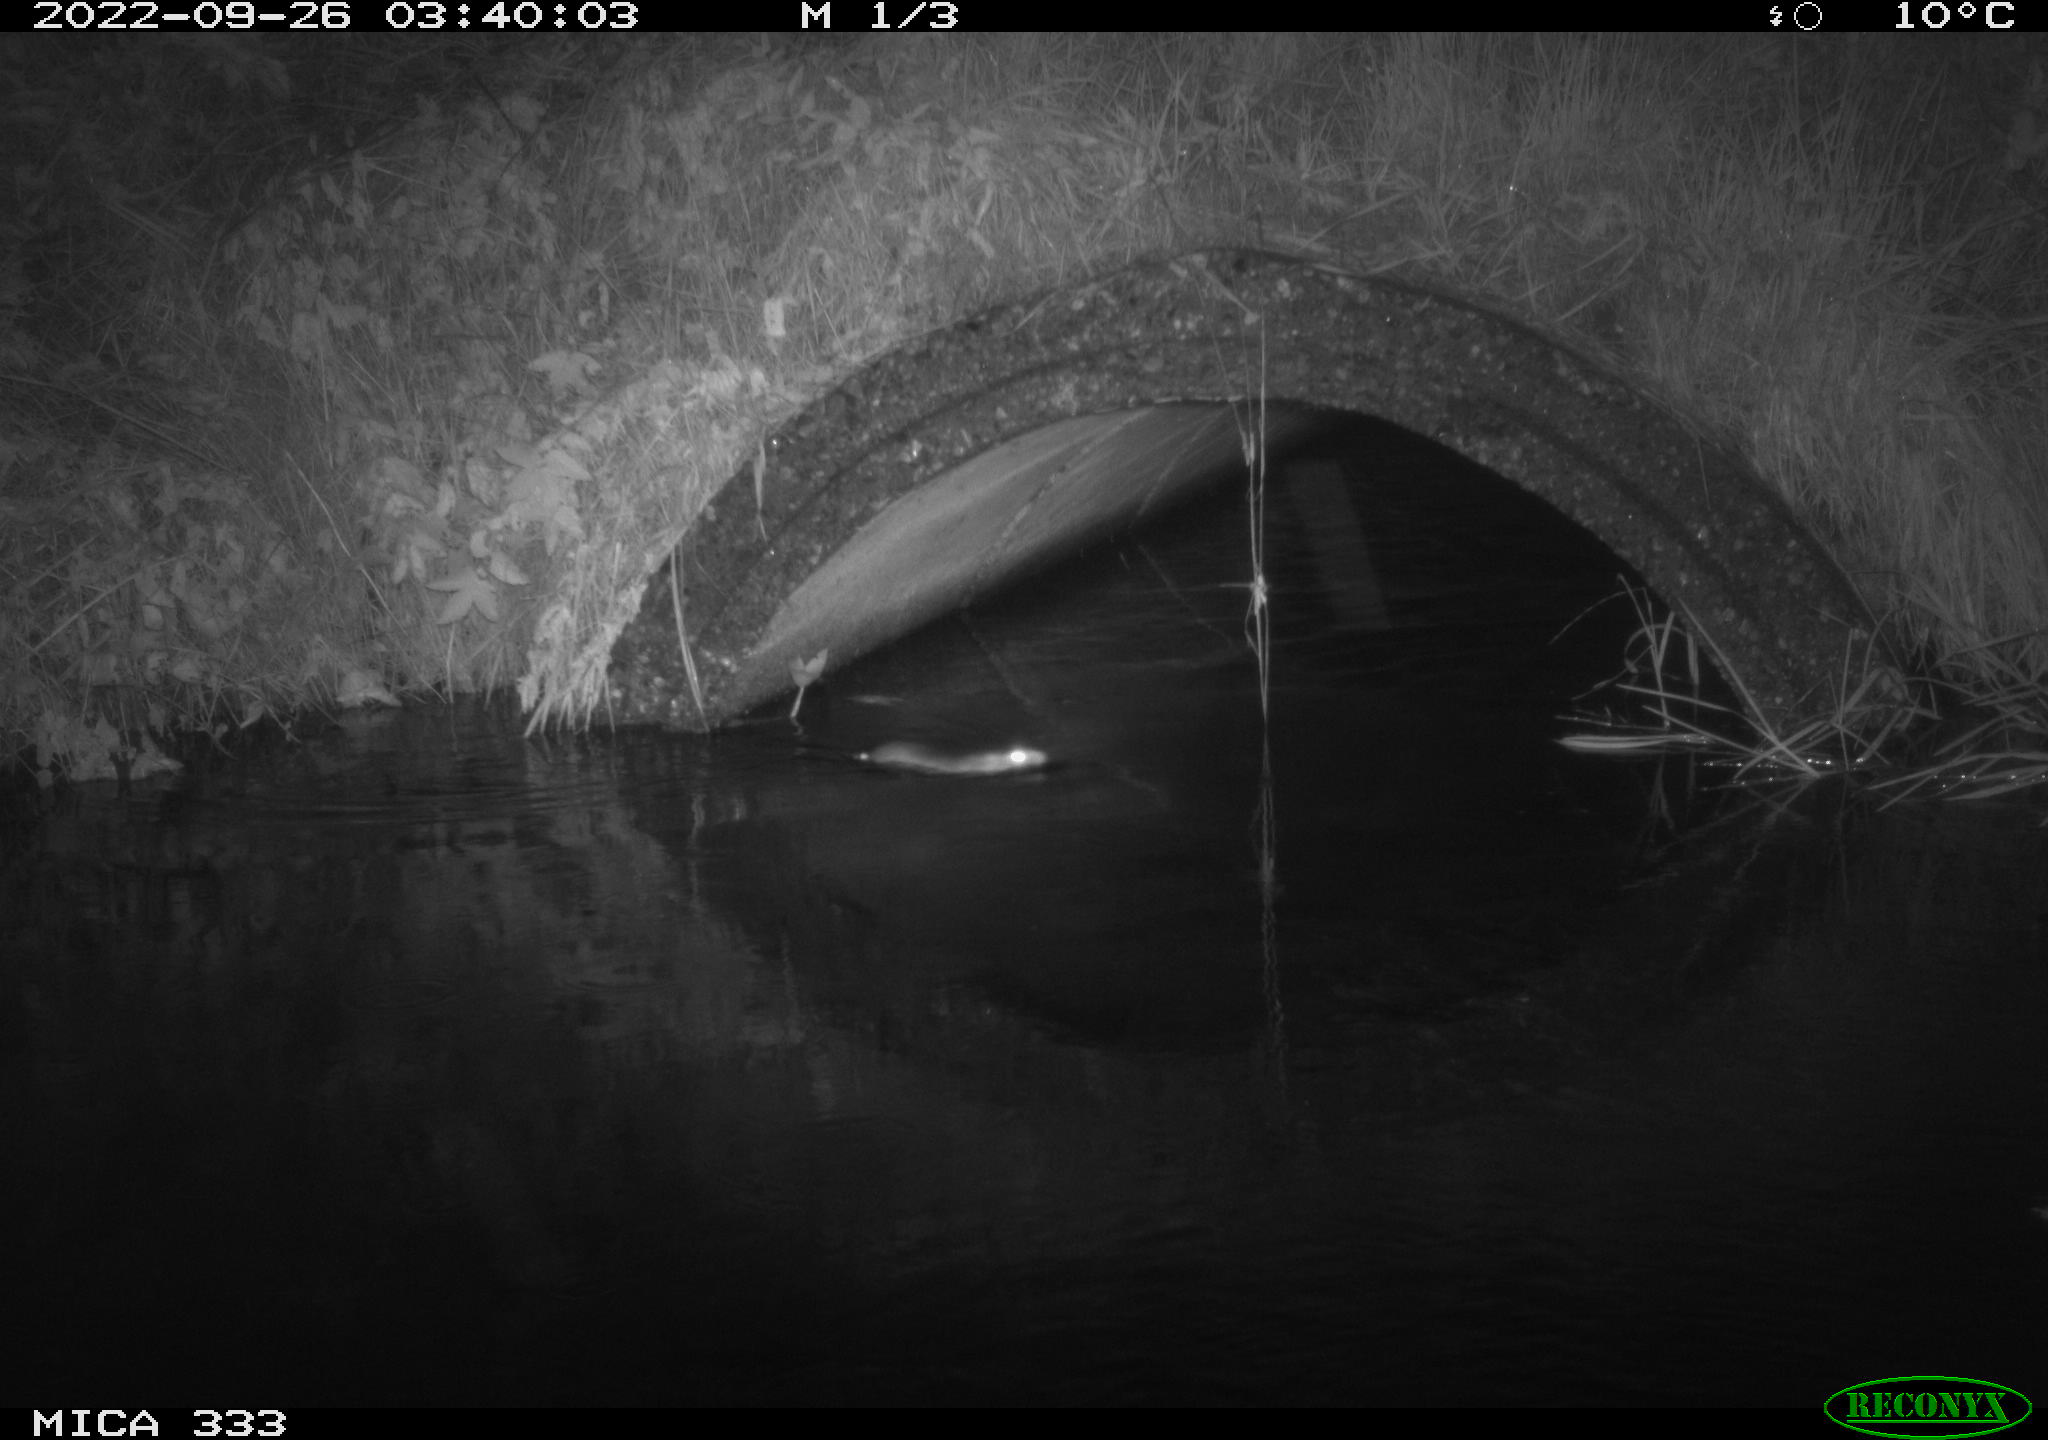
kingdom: Animalia
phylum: Chordata
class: Mammalia
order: Rodentia
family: Muridae
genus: Rattus
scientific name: Rattus norvegicus
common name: Brown rat
